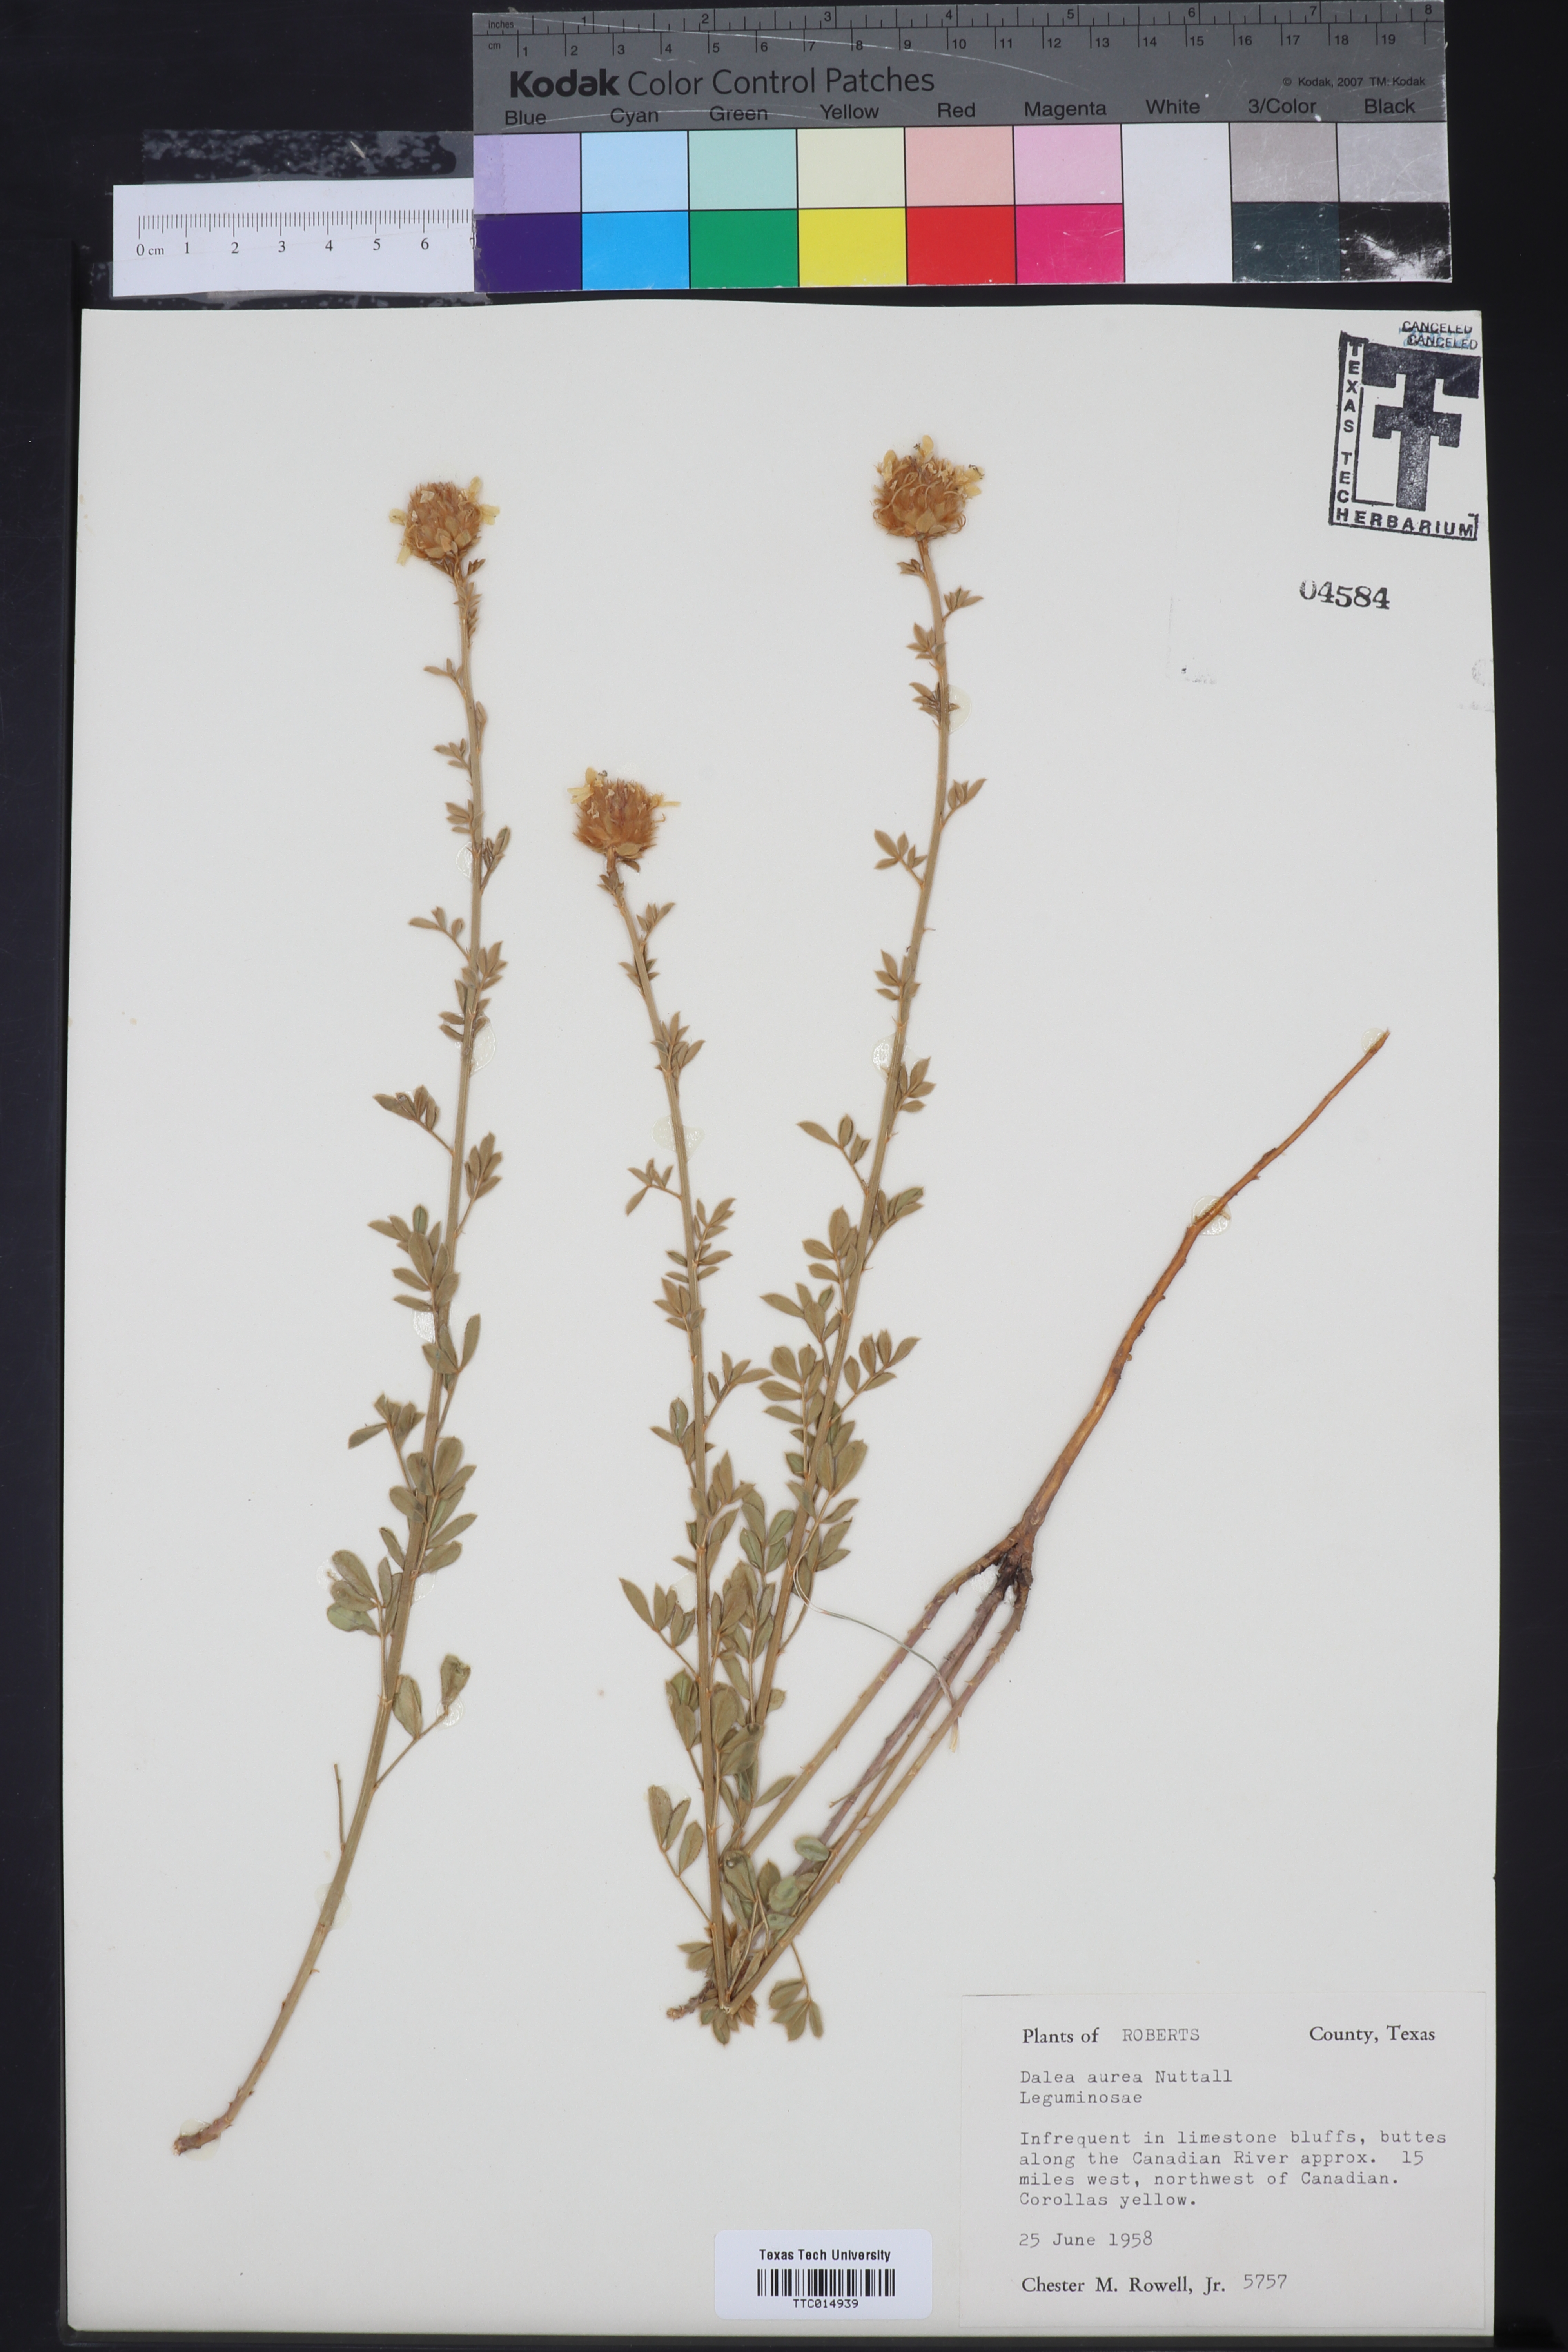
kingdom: Plantae
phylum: Tracheophyta
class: Magnoliopsida
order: Fabales
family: Fabaceae
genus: Dalea
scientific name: Dalea aurea
